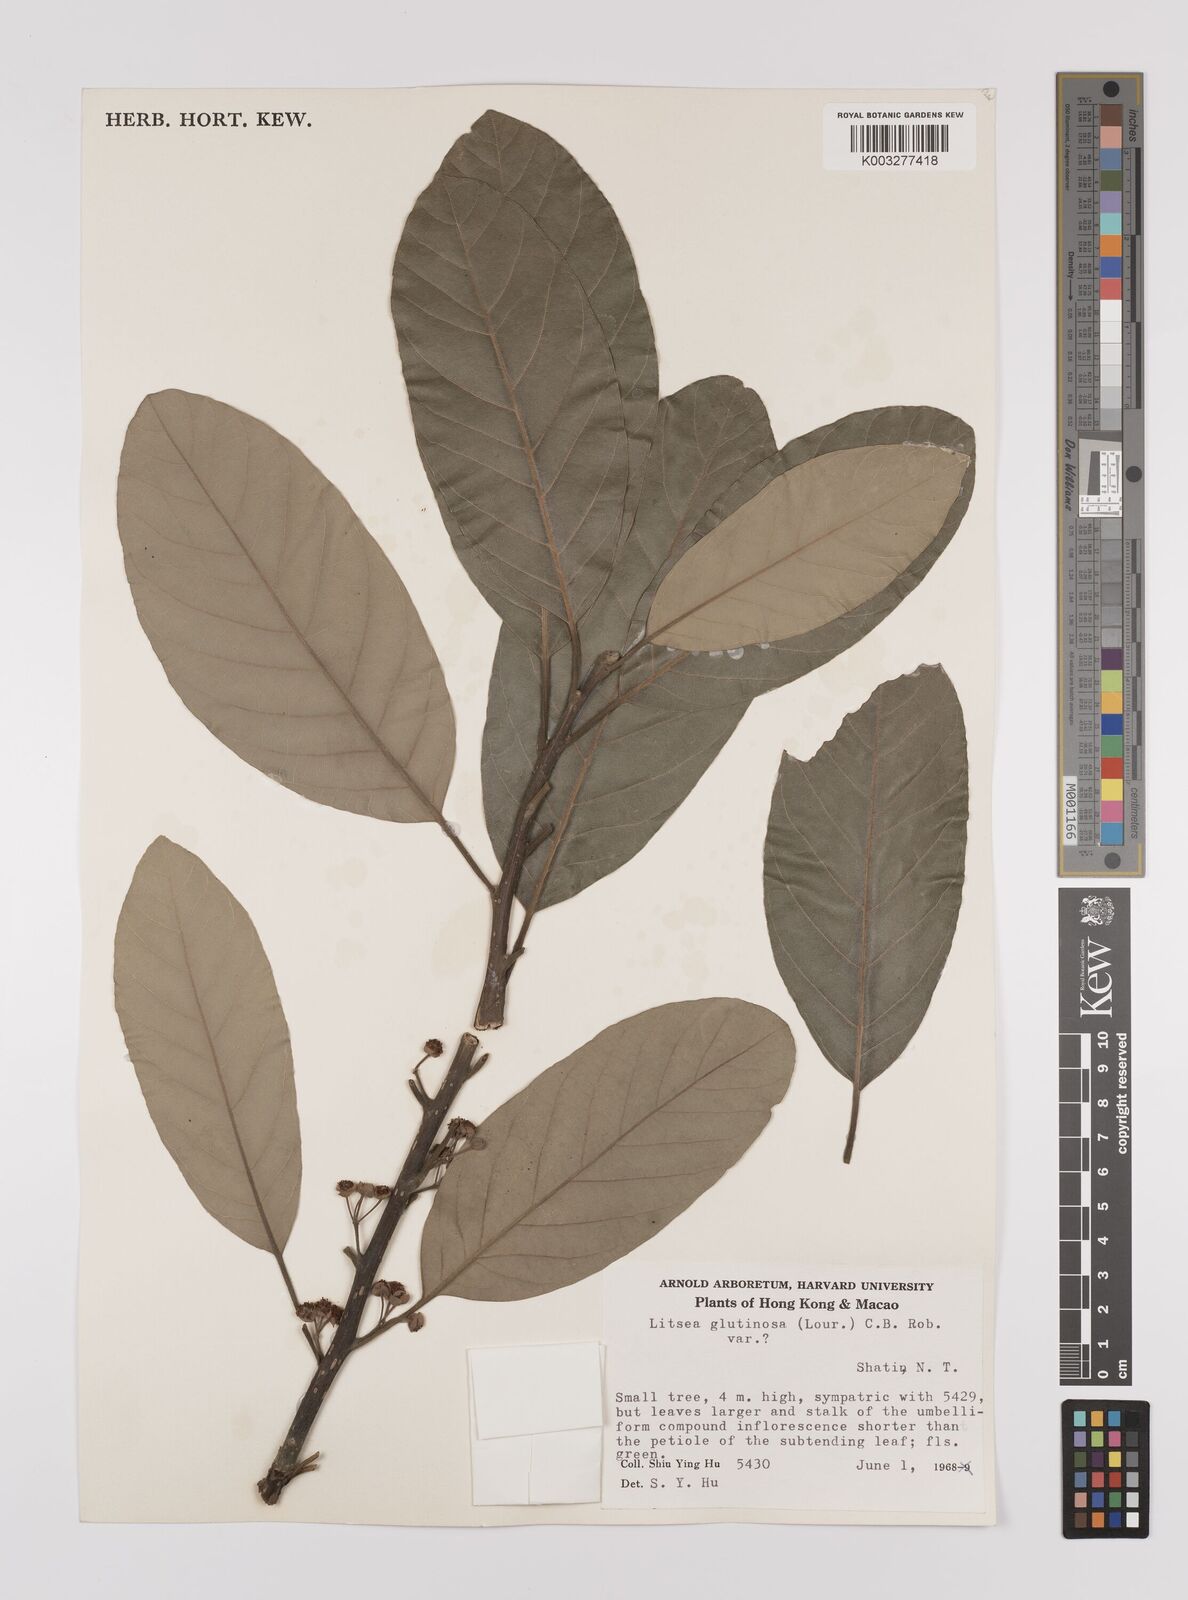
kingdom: Plantae
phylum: Tracheophyta
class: Magnoliopsida
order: Laurales
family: Lauraceae
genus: Litsea
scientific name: Litsea glutinosa
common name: Indian-laurel
